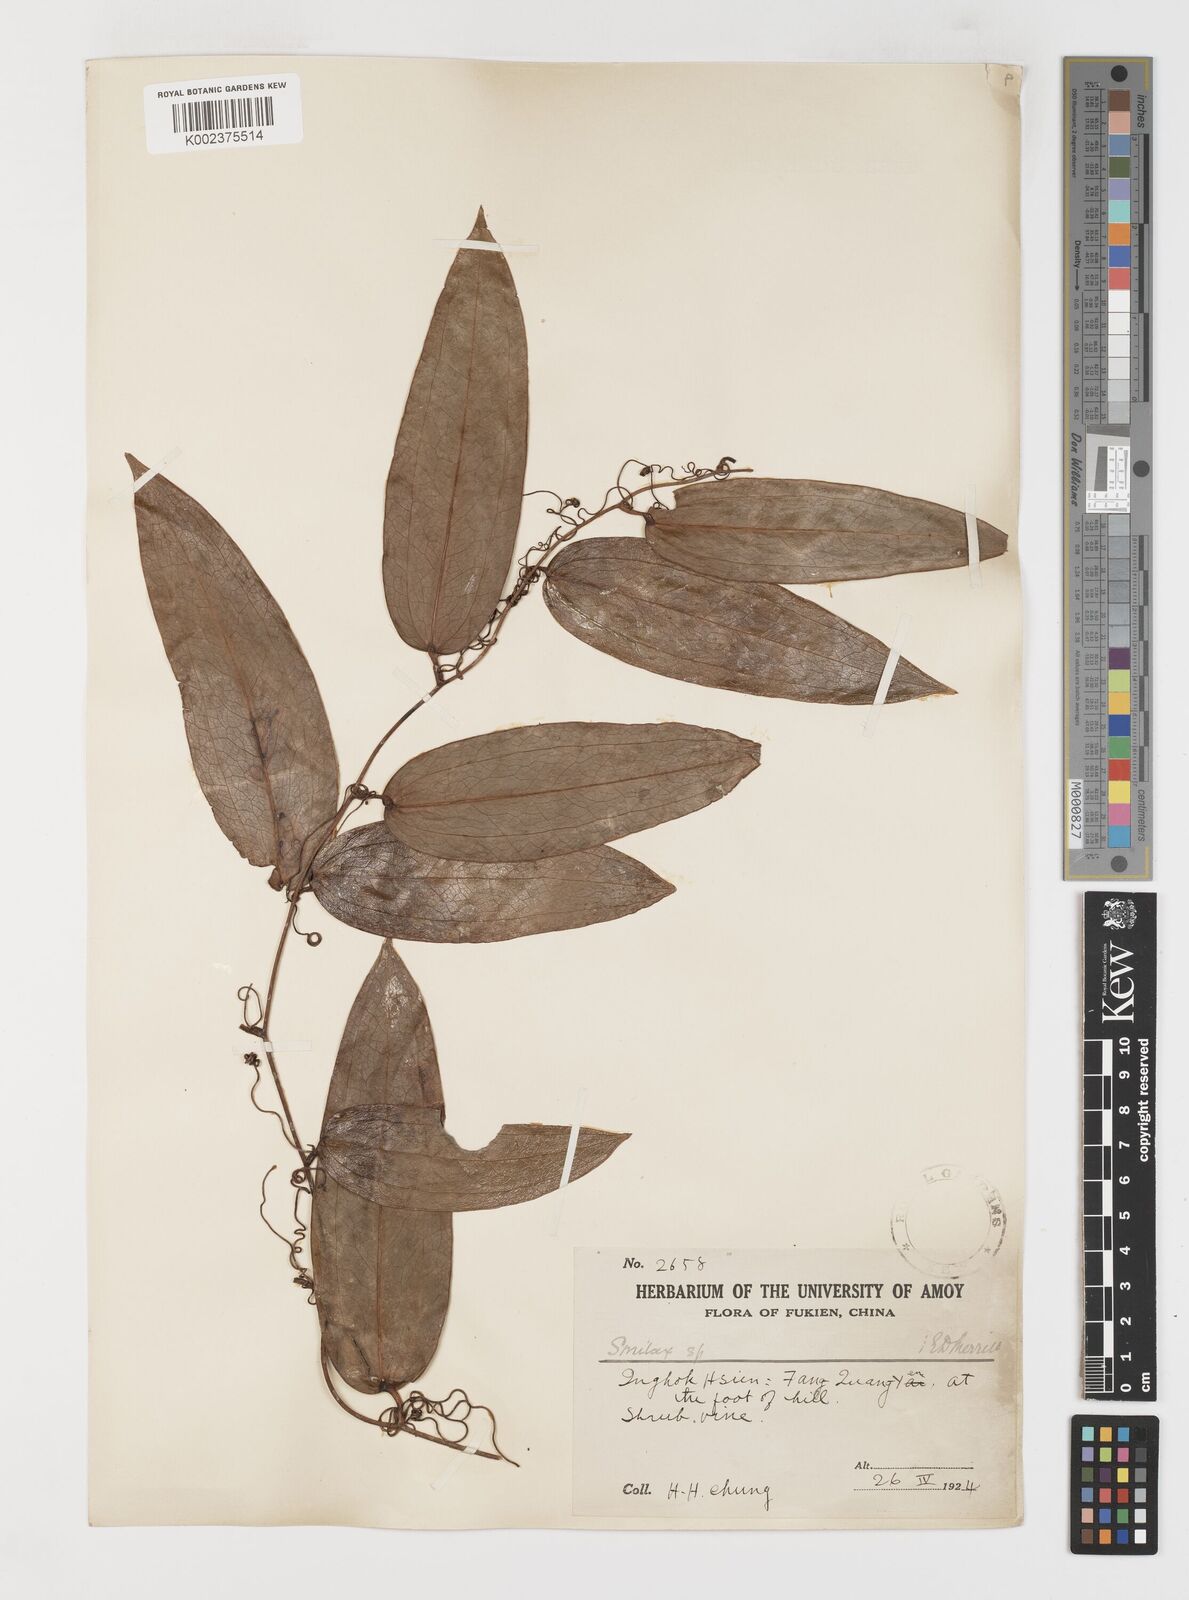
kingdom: Plantae
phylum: Tracheophyta
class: Liliopsida
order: Liliales
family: Smilacaceae
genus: Smilax
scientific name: Smilax glabra
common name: Chinese smilax
